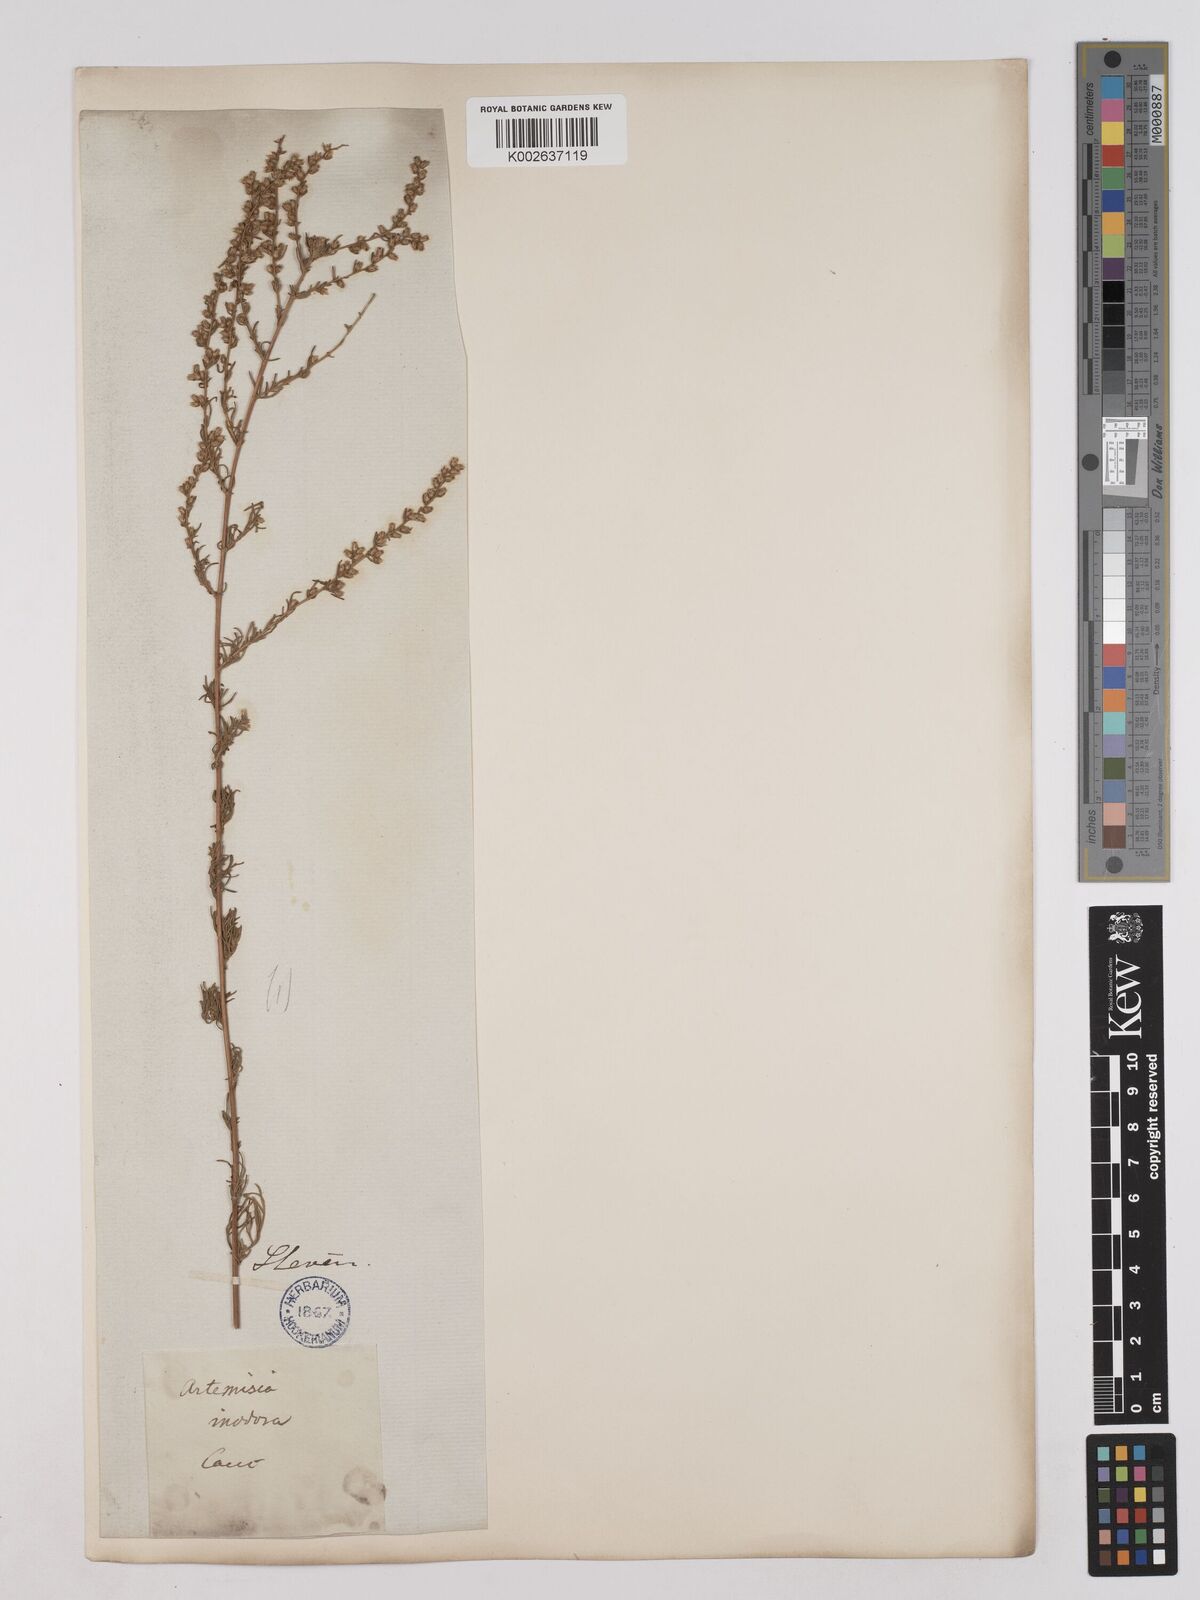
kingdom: Plantae
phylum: Tracheophyta
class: Magnoliopsida
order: Asterales
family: Asteraceae
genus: Artemisia
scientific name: Artemisia campestris
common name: Field wormwood
